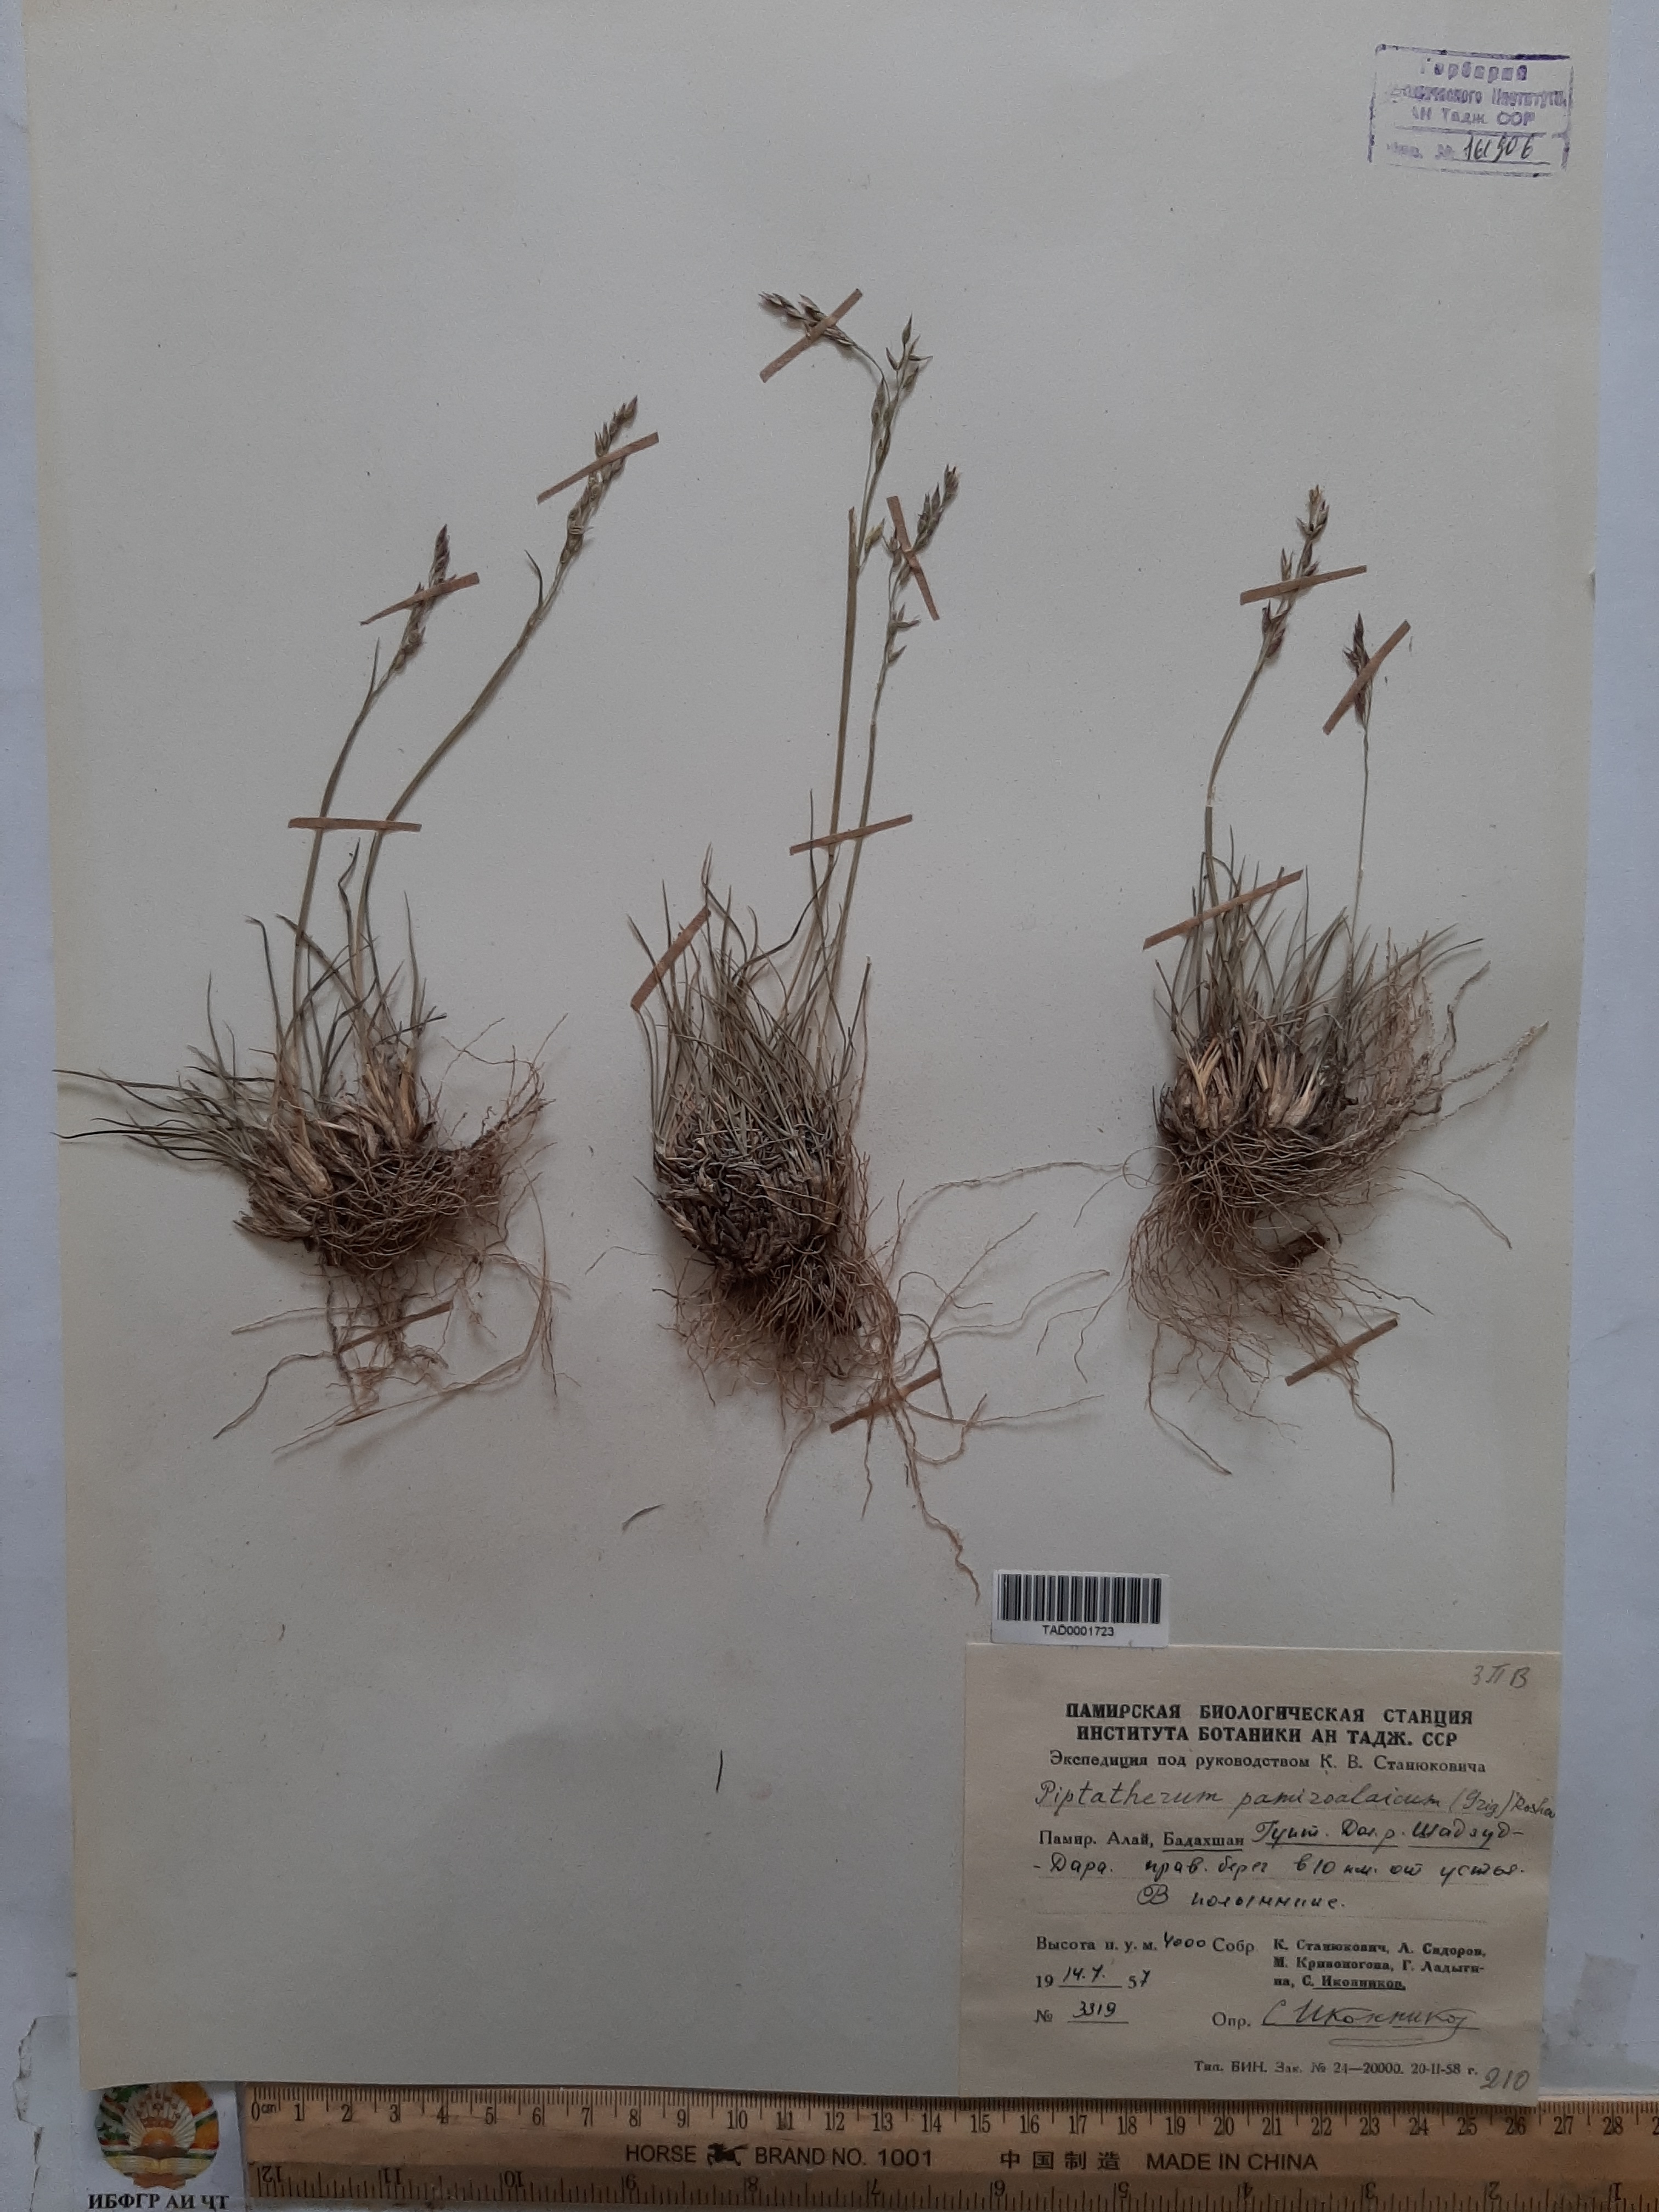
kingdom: Plantae
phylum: Tracheophyta
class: Liliopsida
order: Poales
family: Poaceae
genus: Piptatherum
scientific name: Piptatherum pamiralaicum
